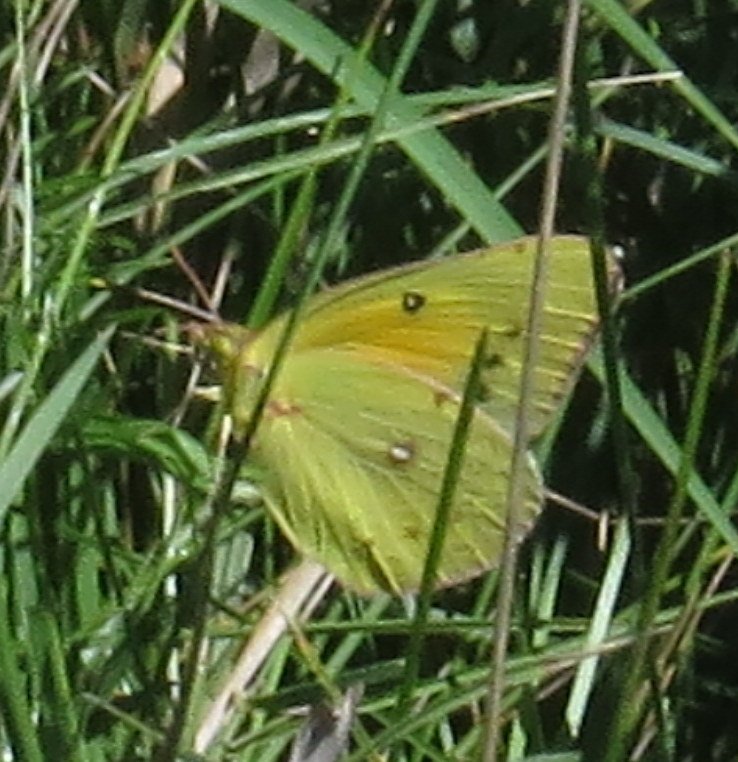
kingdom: Animalia
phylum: Arthropoda
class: Insecta
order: Lepidoptera
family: Pieridae
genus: Colias
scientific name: Colias eurytheme
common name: Orange Sulphur
